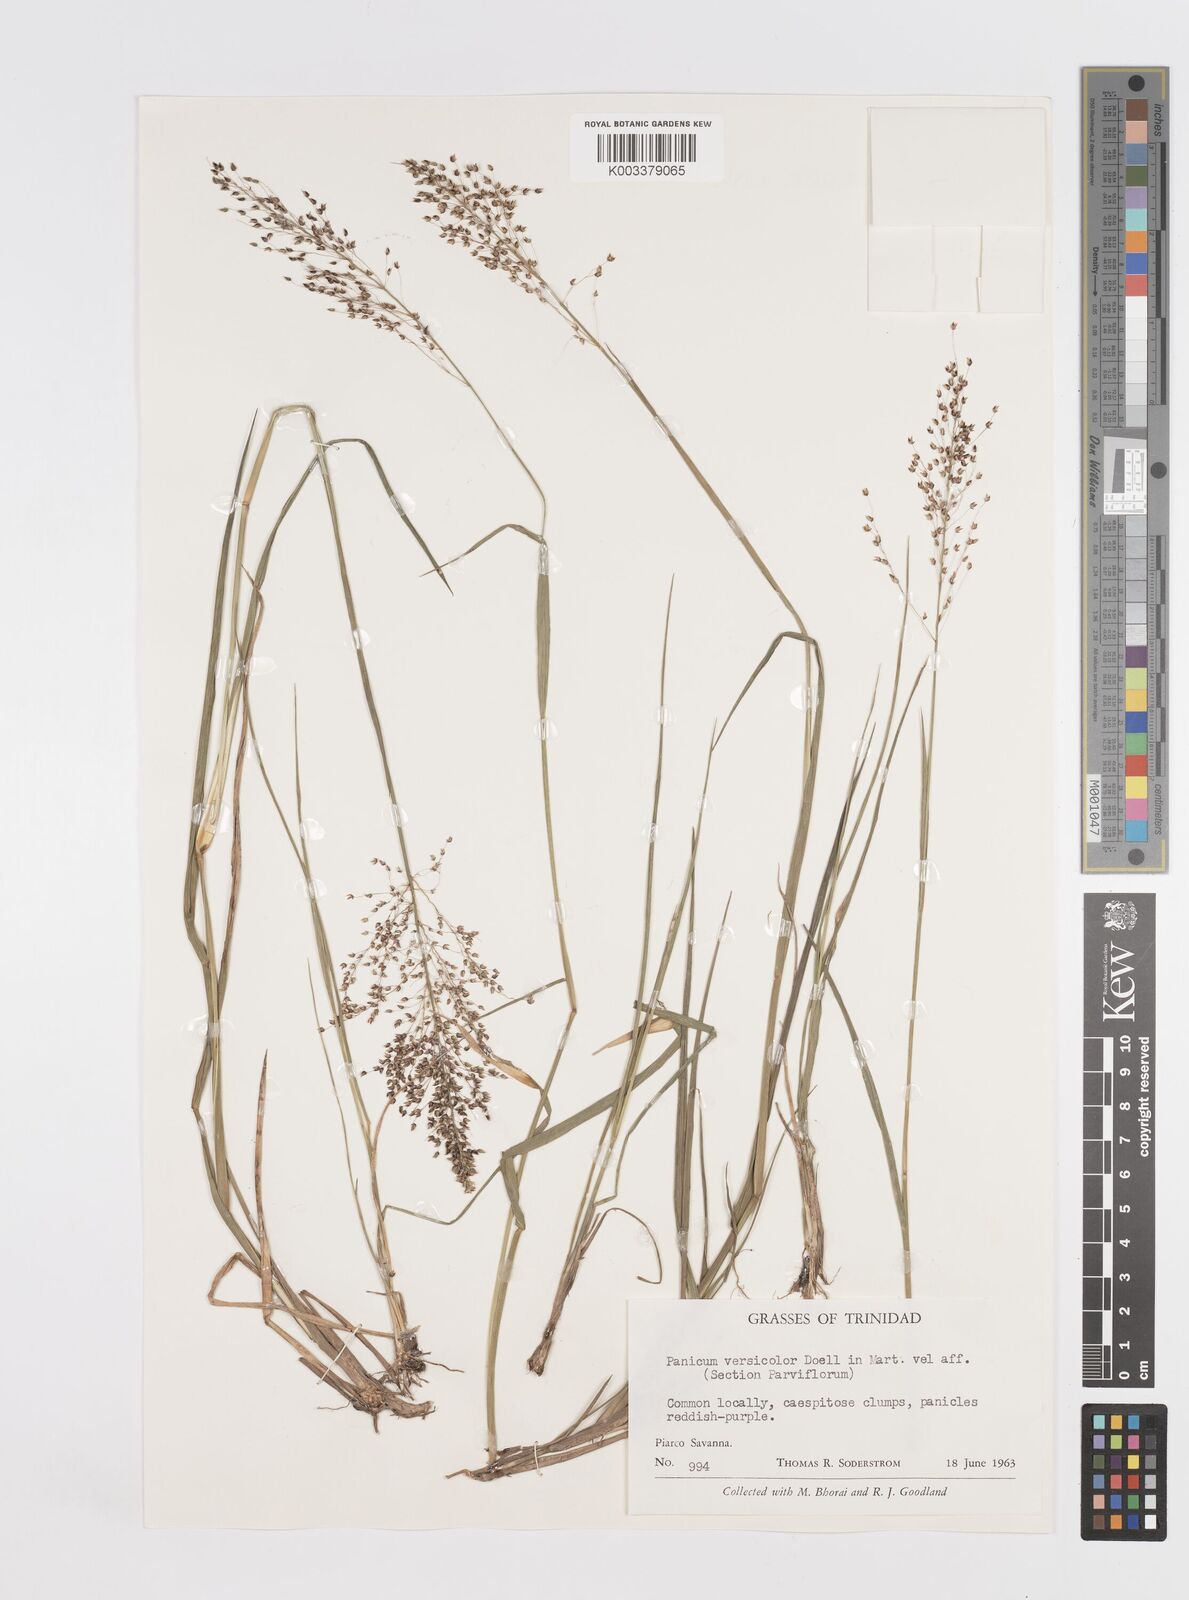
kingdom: Plantae
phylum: Tracheophyta
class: Liliopsida
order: Poales
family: Poaceae
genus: Otachyrium
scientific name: Otachyrium versicolor
